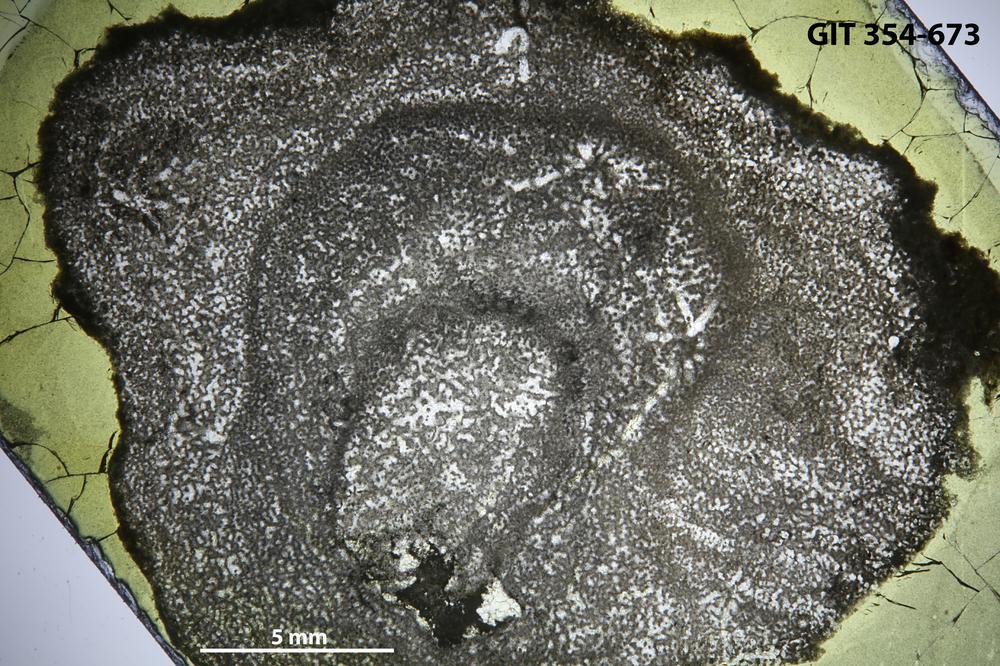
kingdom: Animalia
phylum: Porifera
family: Ecclimadictyidae
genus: Ecclimadictyon
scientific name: Ecclimadictyon
